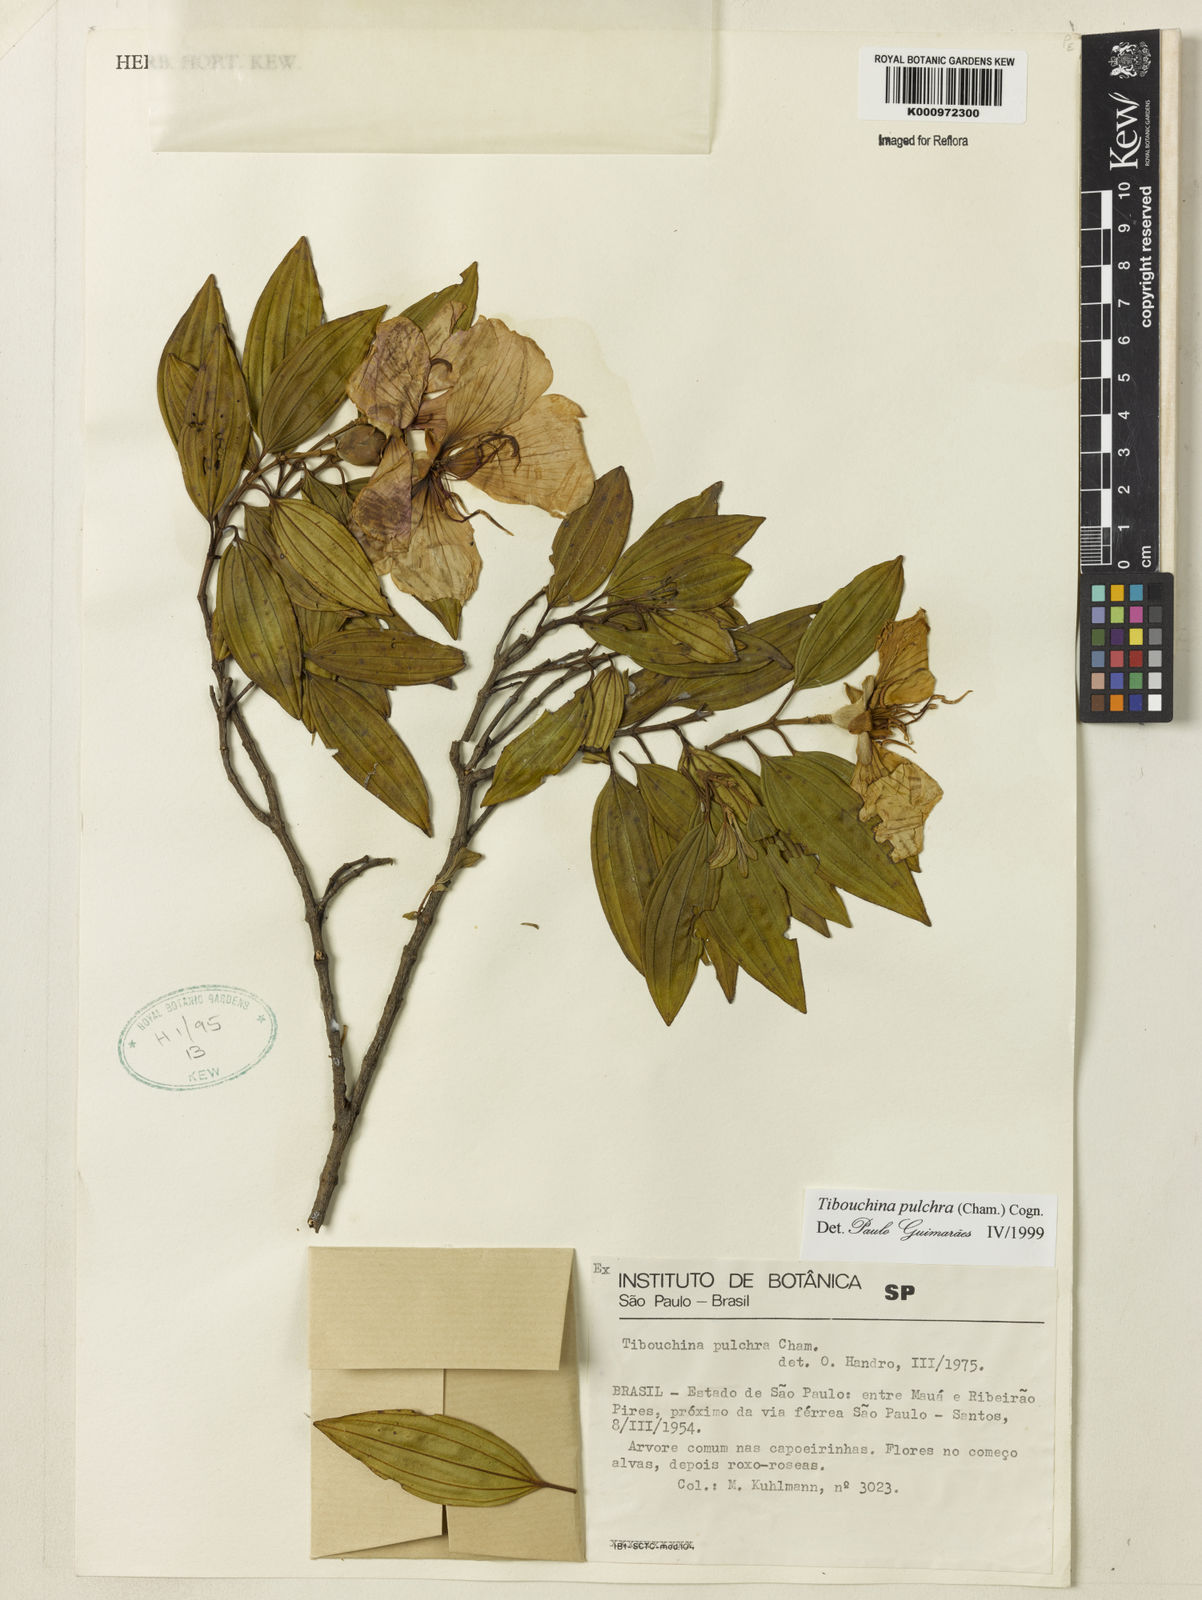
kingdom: Plantae
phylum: Tracheophyta
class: Magnoliopsida
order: Myrtales
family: Melastomataceae
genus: Pleroma
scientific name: Pleroma raddianum
